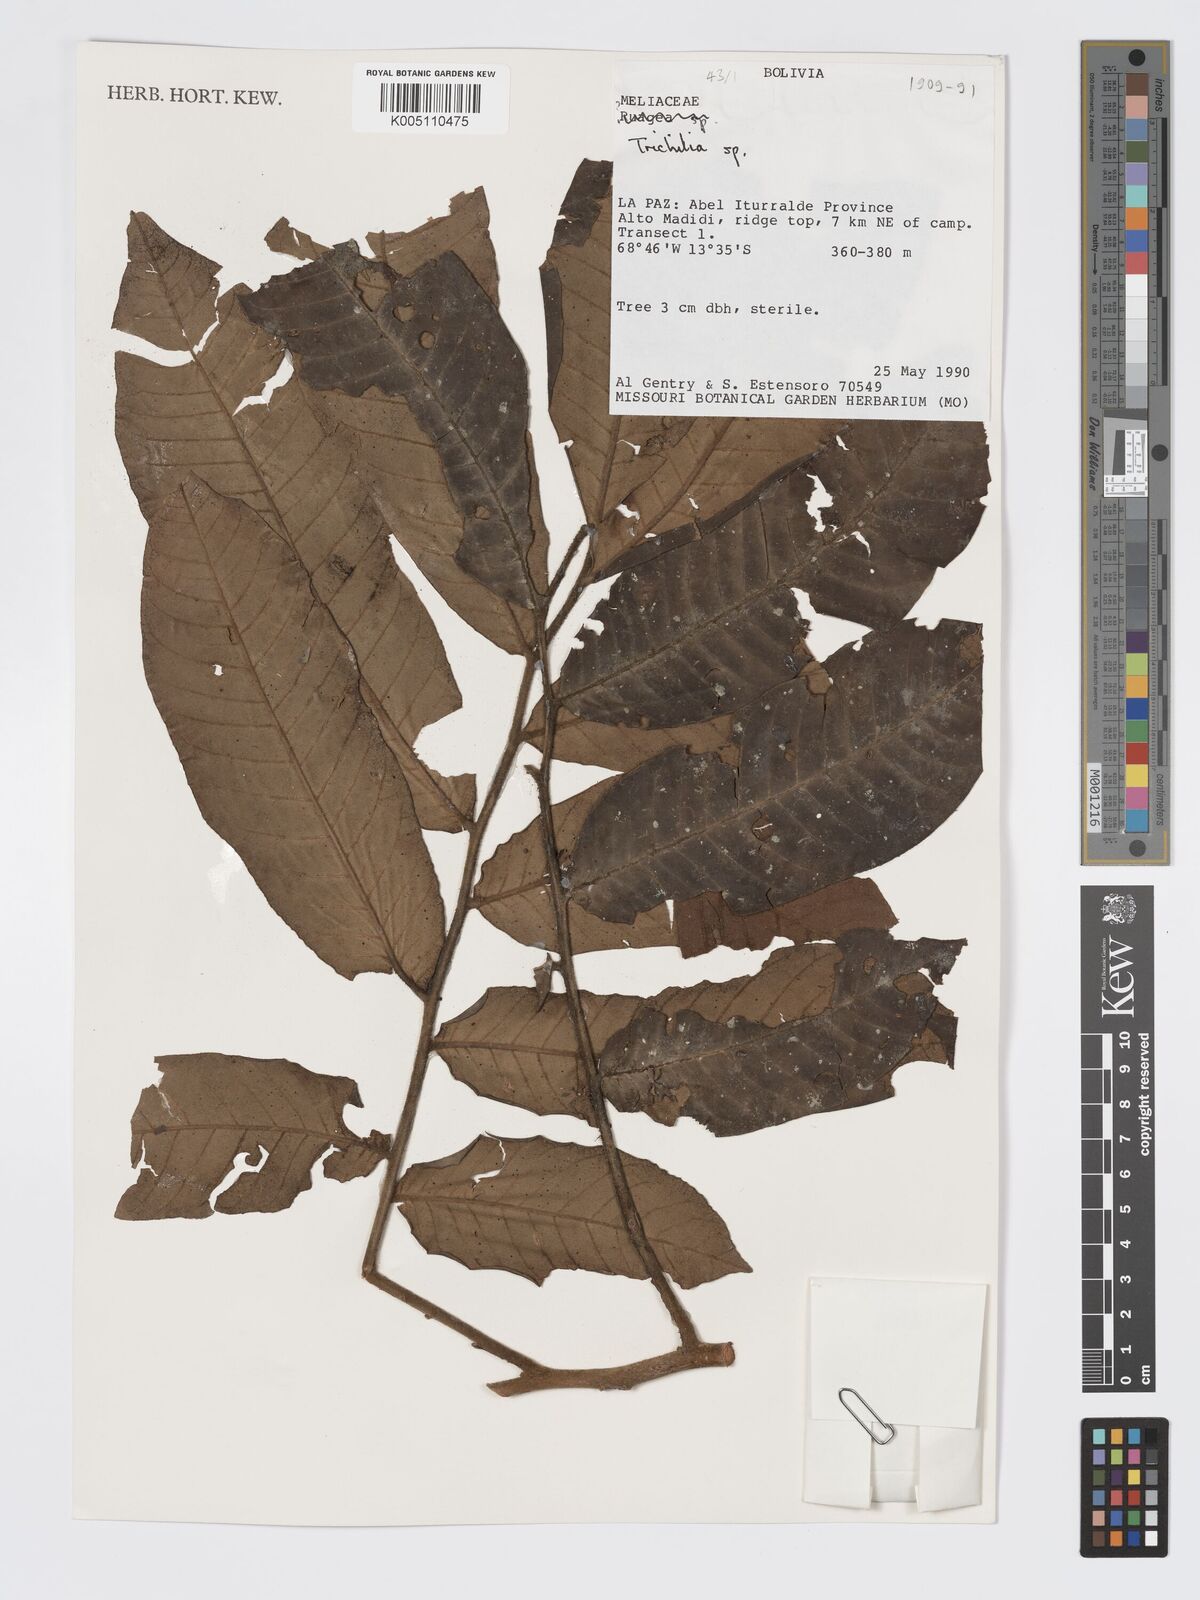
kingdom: Plantae
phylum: Tracheophyta
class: Magnoliopsida
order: Sapindales
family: Meliaceae
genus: Trichilia
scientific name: Trichilia
